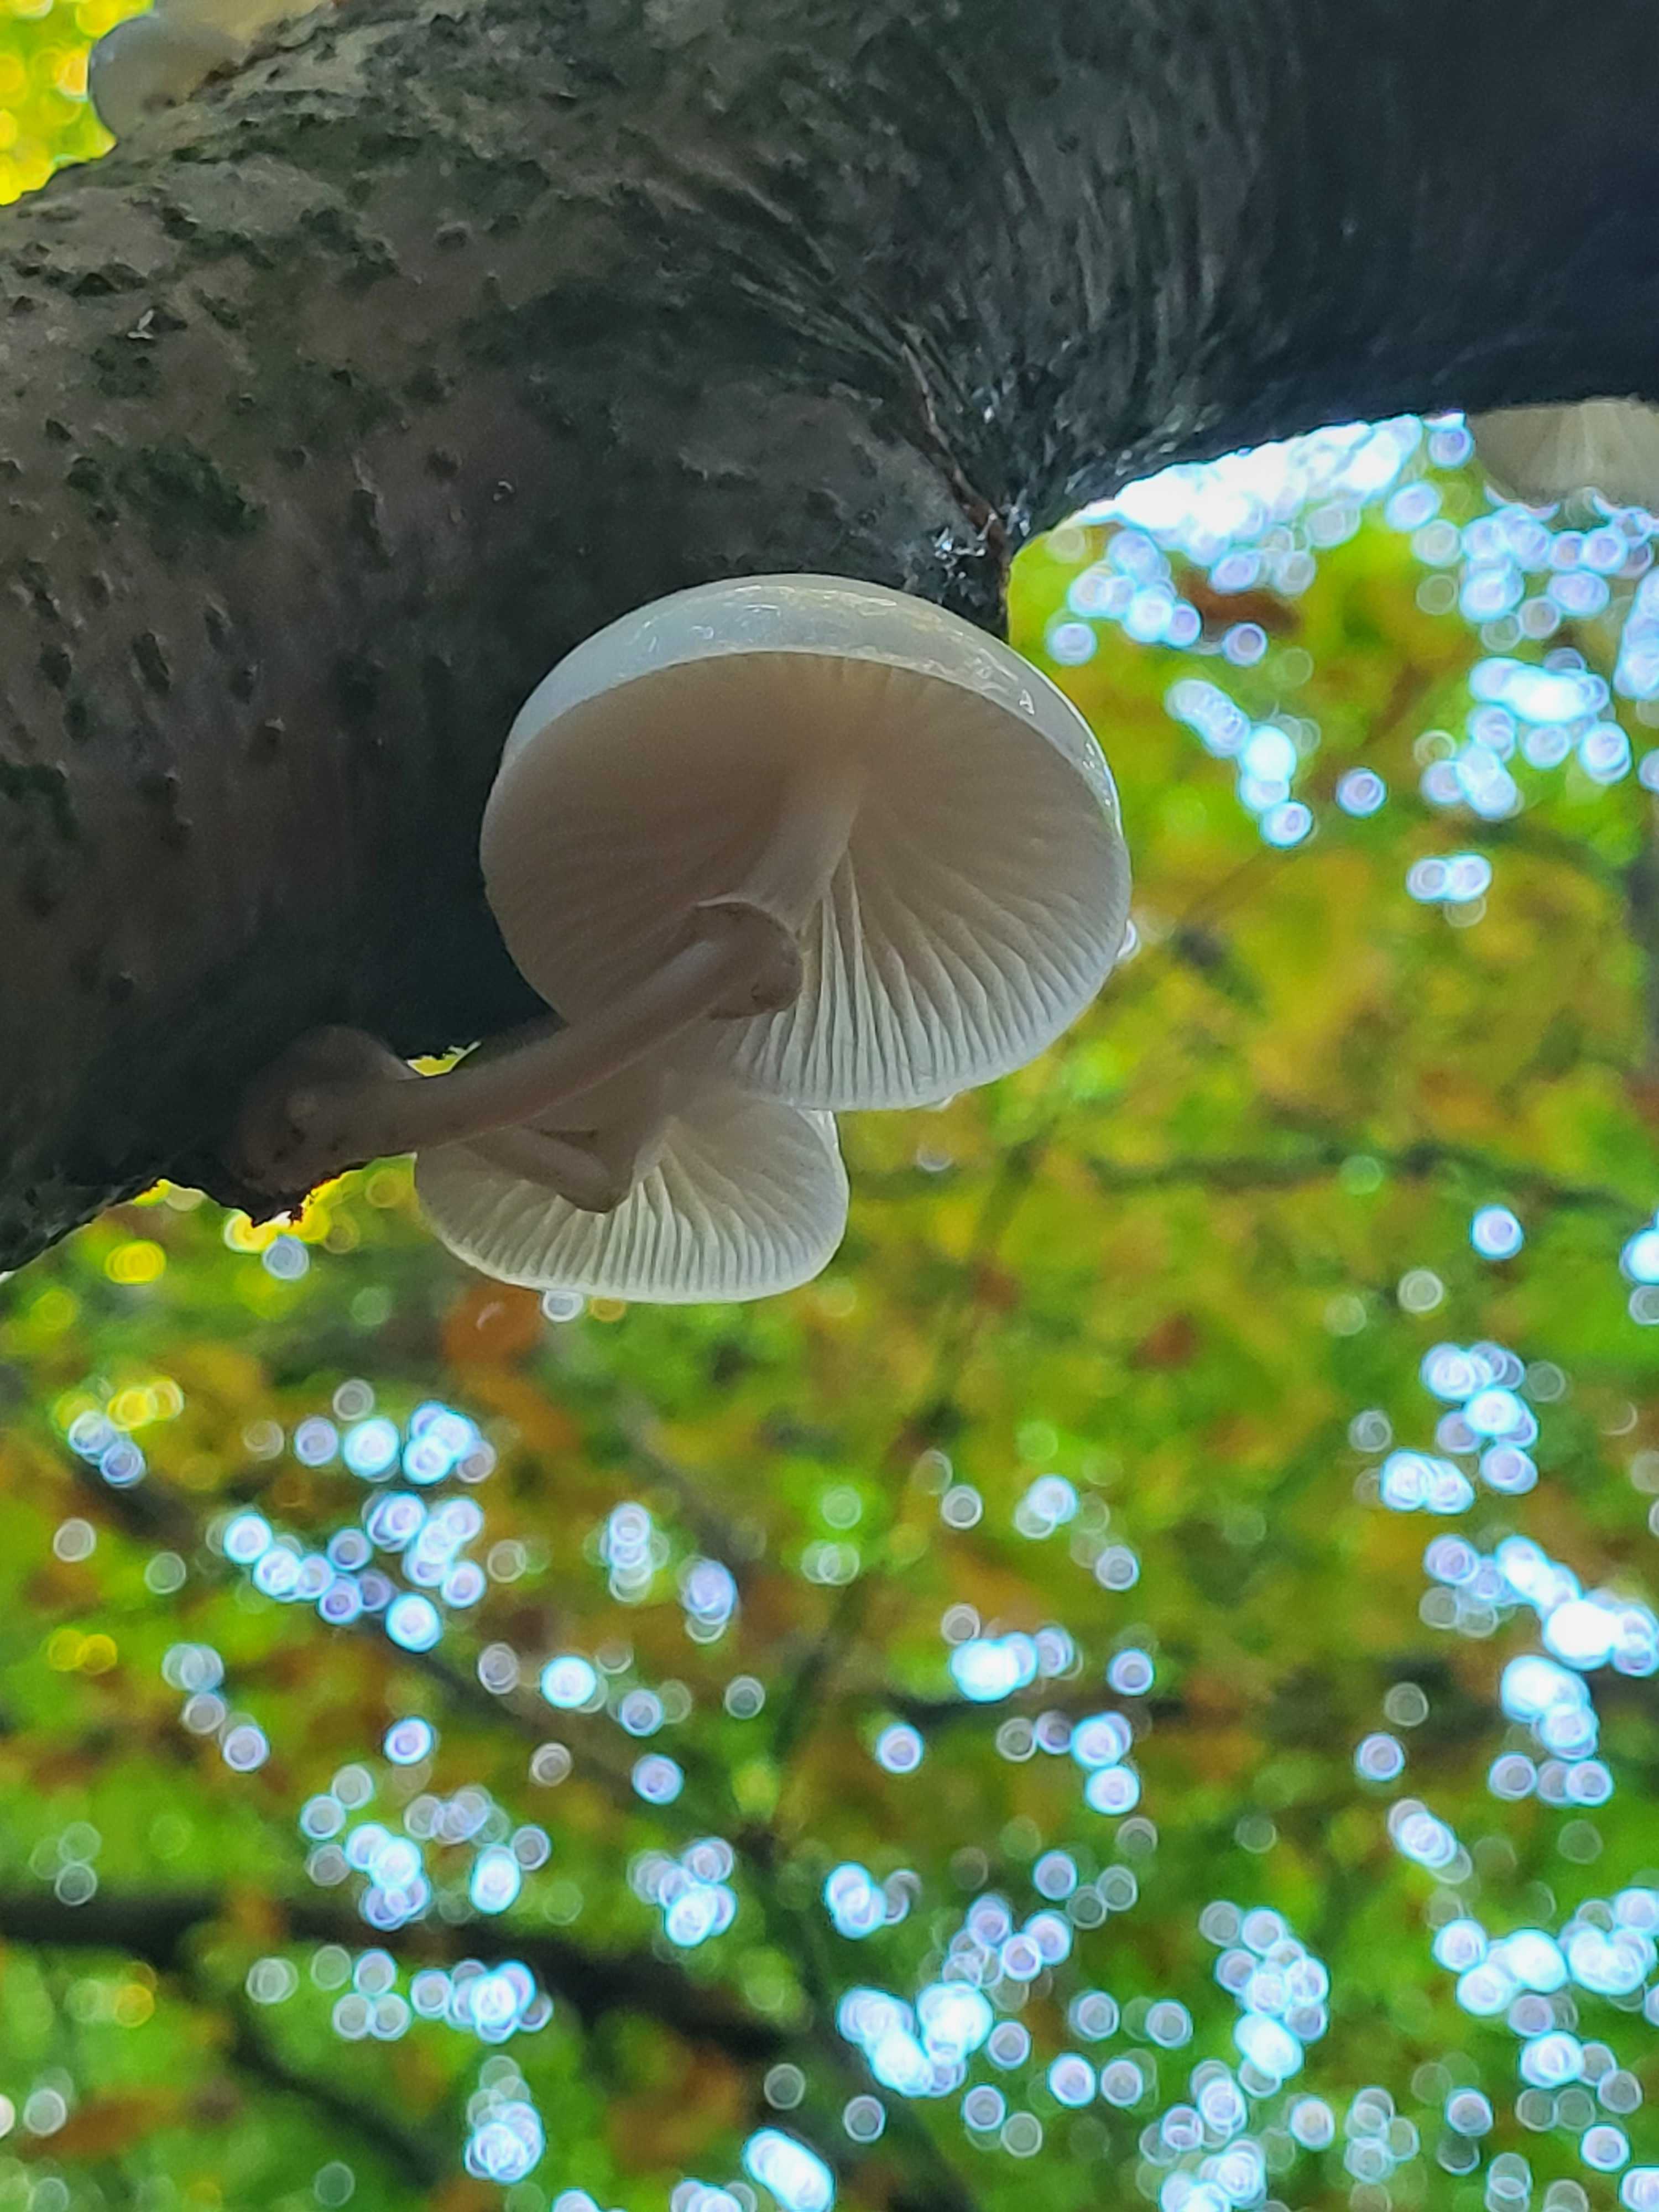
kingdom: Fungi
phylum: Basidiomycota
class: Agaricomycetes
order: Agaricales
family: Physalacriaceae
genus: Mucidula
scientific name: Mucidula mucida
